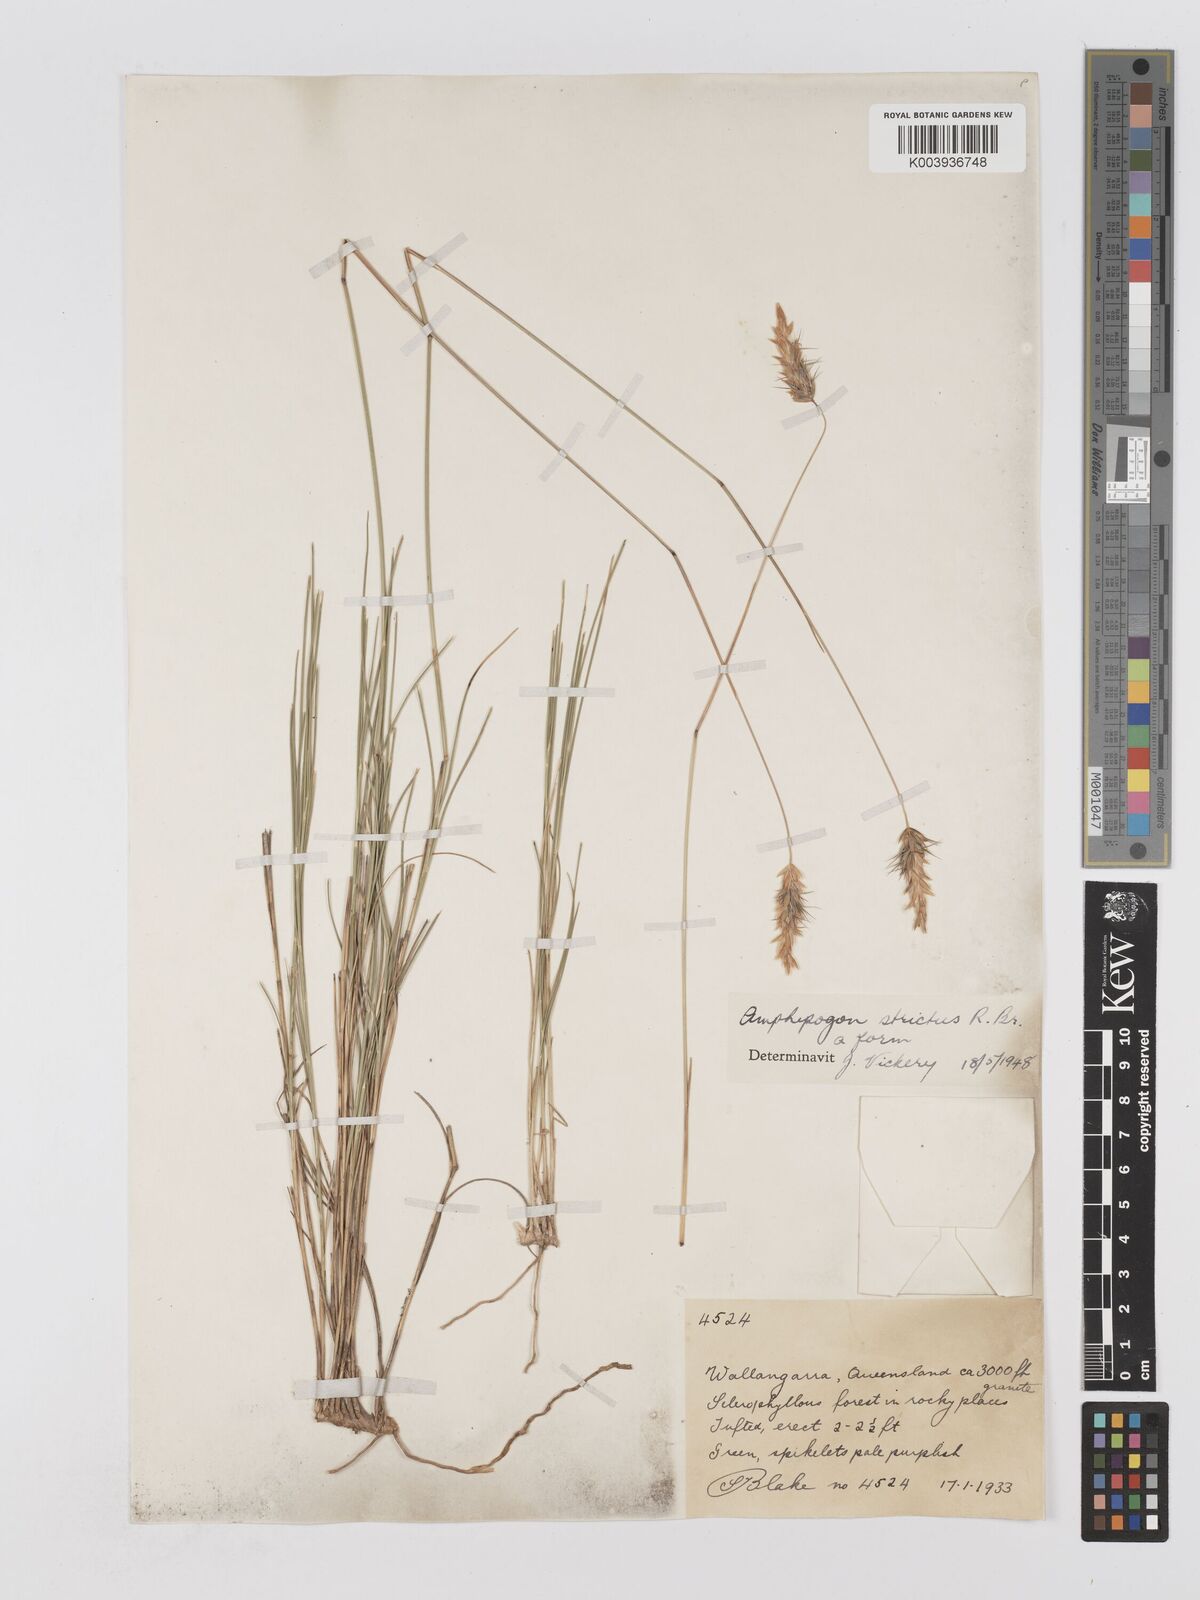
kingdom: Plantae
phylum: Tracheophyta
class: Liliopsida
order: Poales
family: Poaceae
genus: Amphipogon
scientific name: Amphipogon strictus
